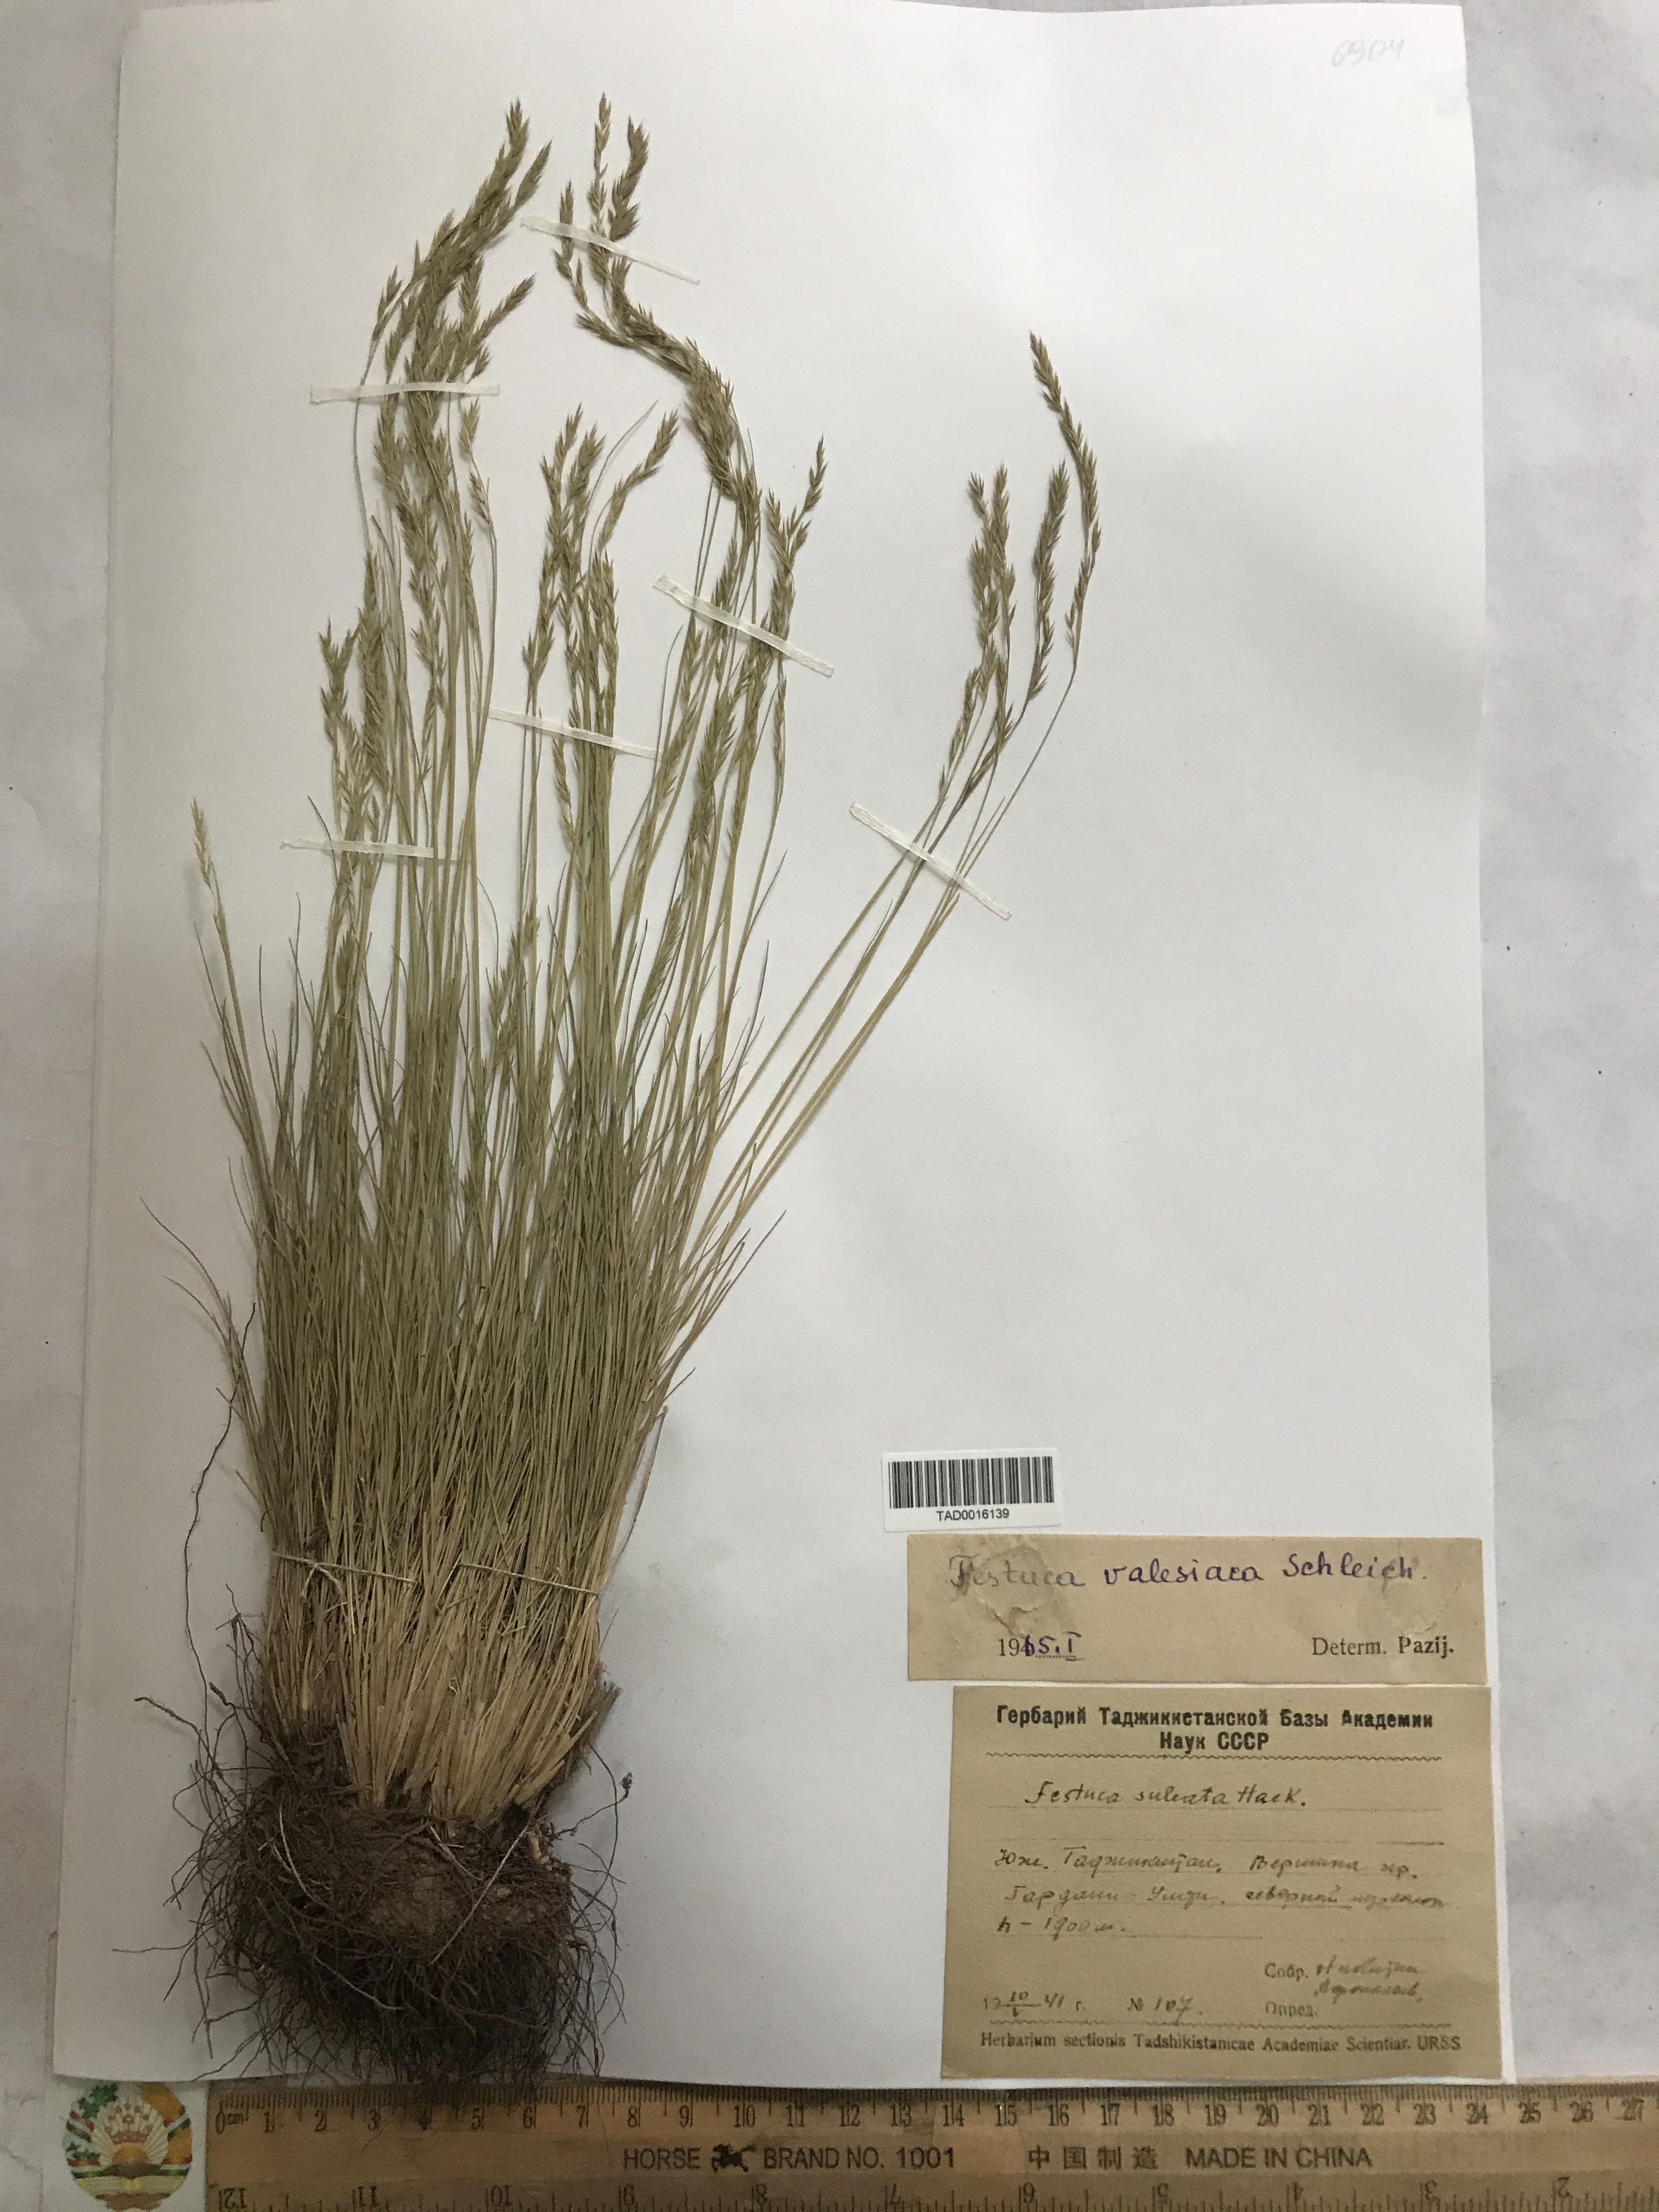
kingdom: Plantae
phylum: Tracheophyta
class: Liliopsida
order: Poales
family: Poaceae
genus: Festuca
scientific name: Festuca valesiaca
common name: Volga fescue
